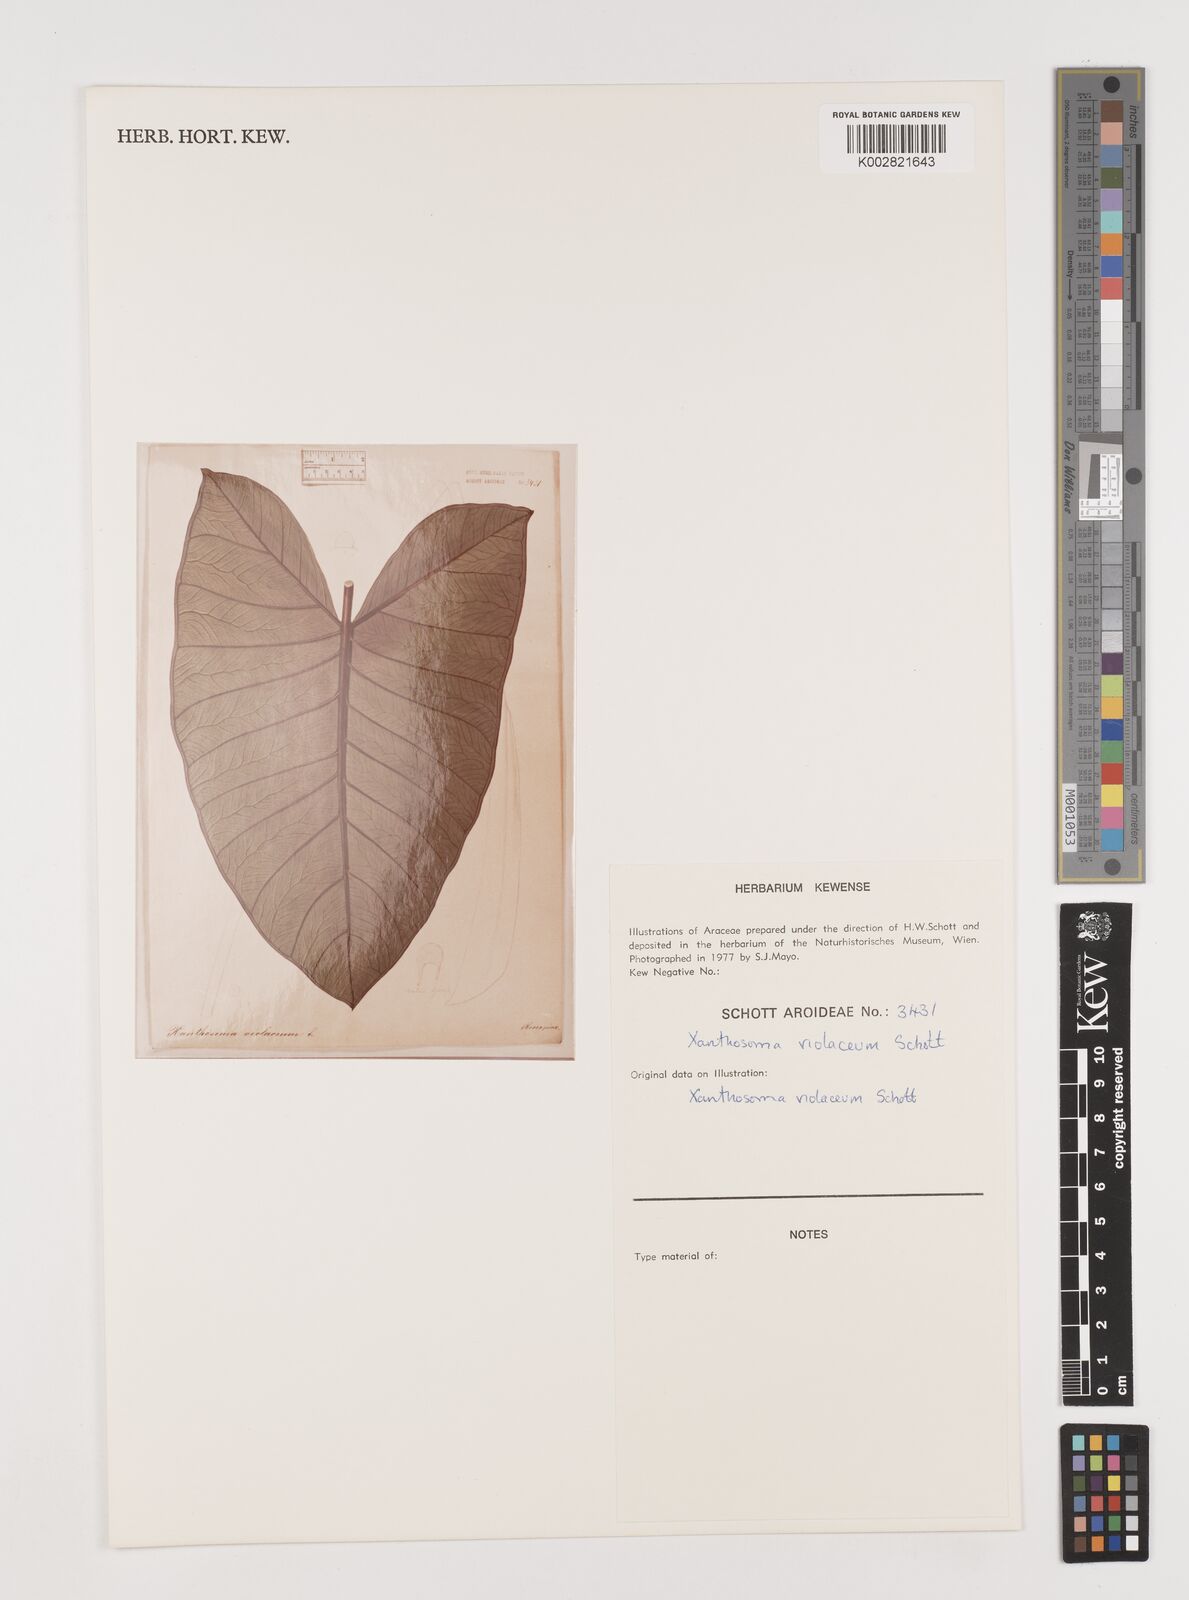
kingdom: Plantae
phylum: Tracheophyta
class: Liliopsida
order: Alismatales
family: Araceae
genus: Xanthosoma
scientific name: Xanthosoma sagittifolium
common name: Arrowleaf elephant's ear
